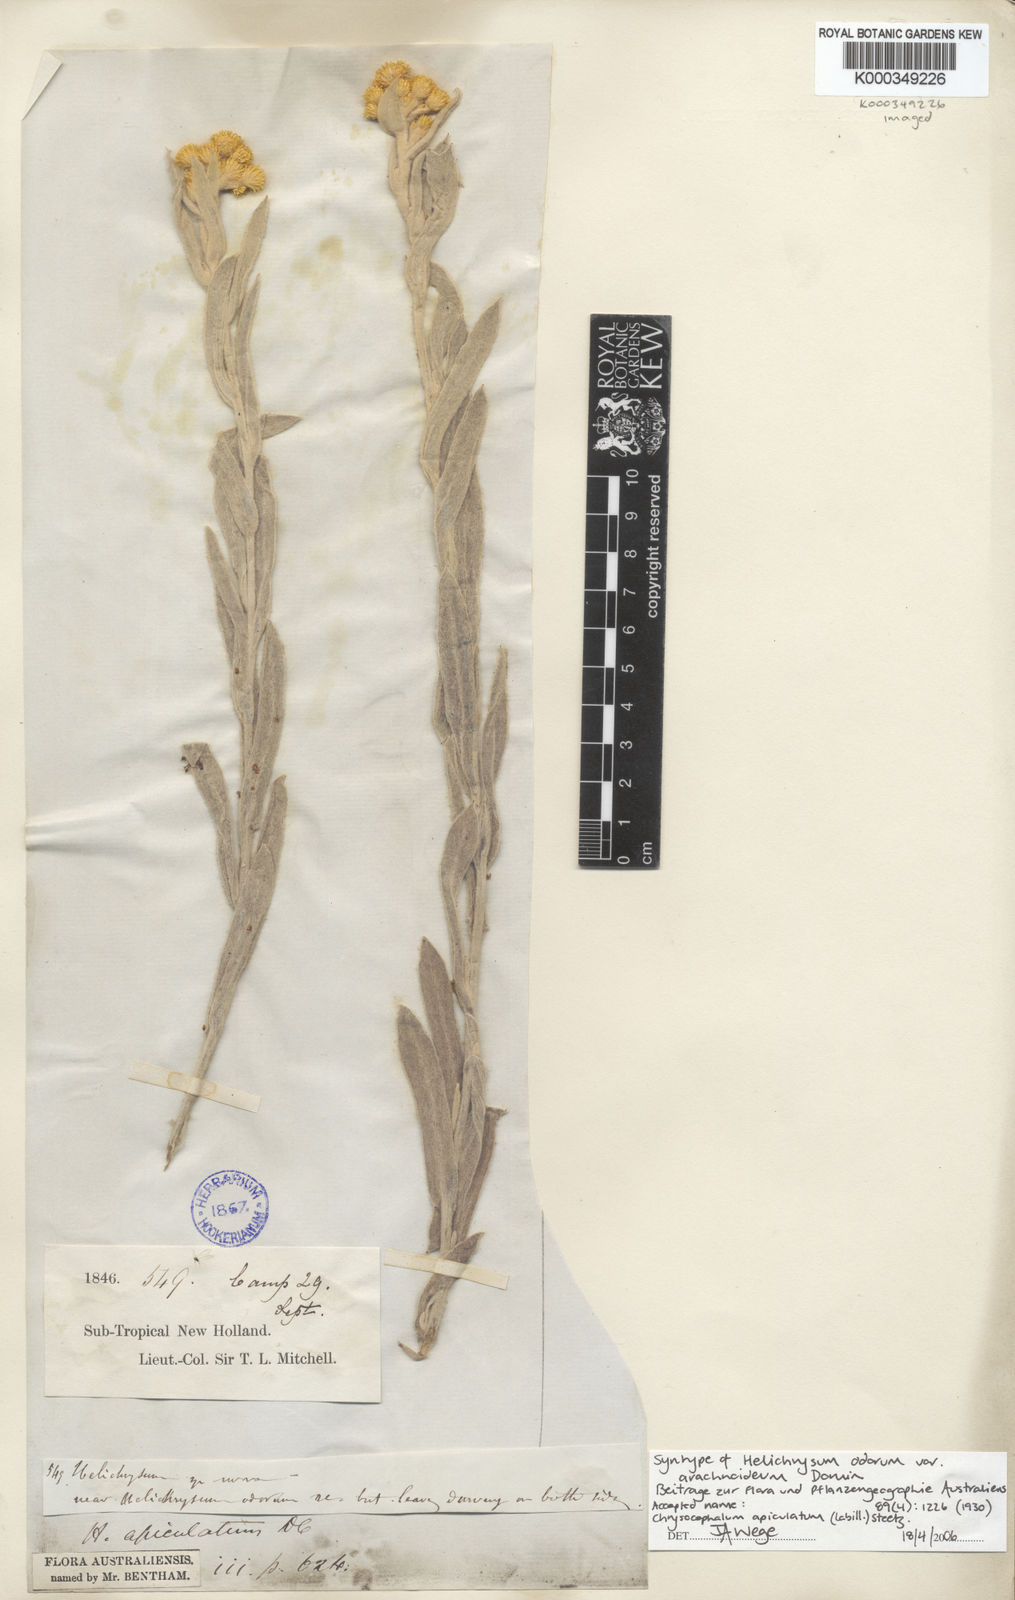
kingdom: Plantae
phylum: Tracheophyta
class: Magnoliopsida
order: Asterales
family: Asteraceae
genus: Chrysocephalum
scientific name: Chrysocephalum apiculatum
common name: Common everlasting
